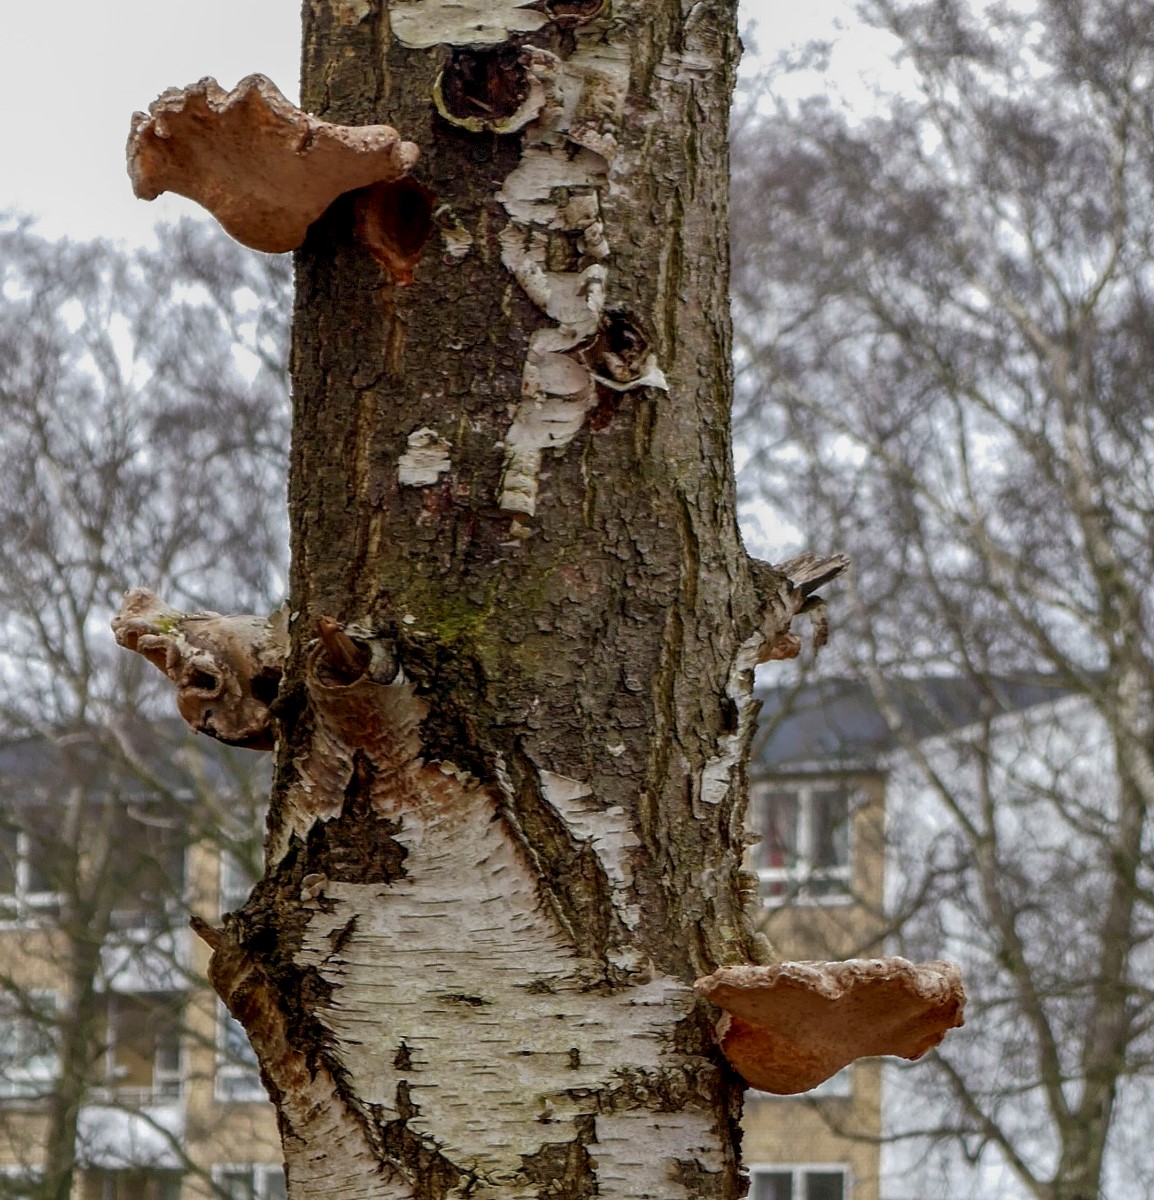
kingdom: Fungi
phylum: Basidiomycota
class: Agaricomycetes
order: Polyporales
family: Fomitopsidaceae
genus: Fomitopsis
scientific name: Fomitopsis betulina
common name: birkeporesvamp
